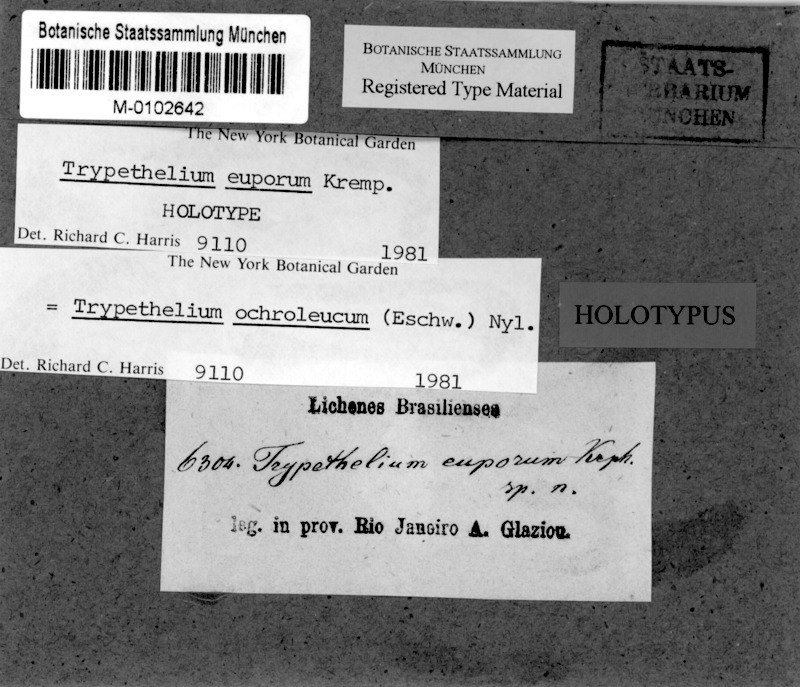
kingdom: Fungi
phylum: Ascomycota
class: Dothideomycetes
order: Trypetheliales
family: Trypetheliaceae
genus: Trypethelium
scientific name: Trypethelium
